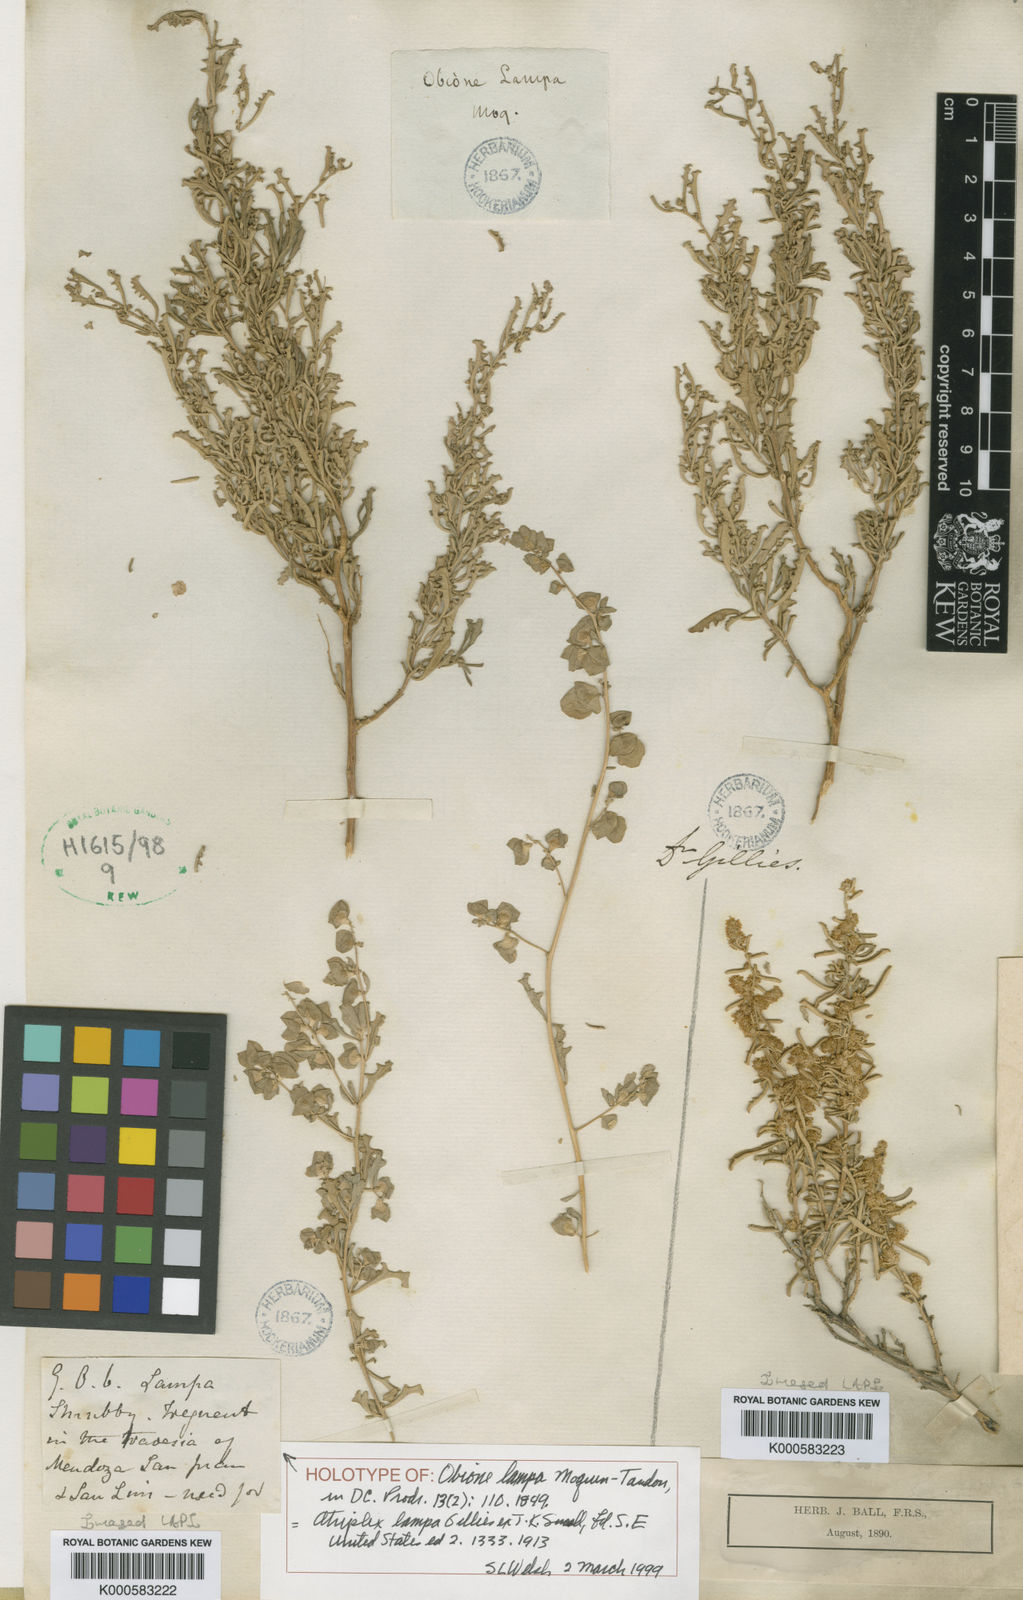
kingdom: Plantae
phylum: Tracheophyta
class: Magnoliopsida
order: Caryophyllales
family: Amaranthaceae
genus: Atriplex
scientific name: Atriplex
